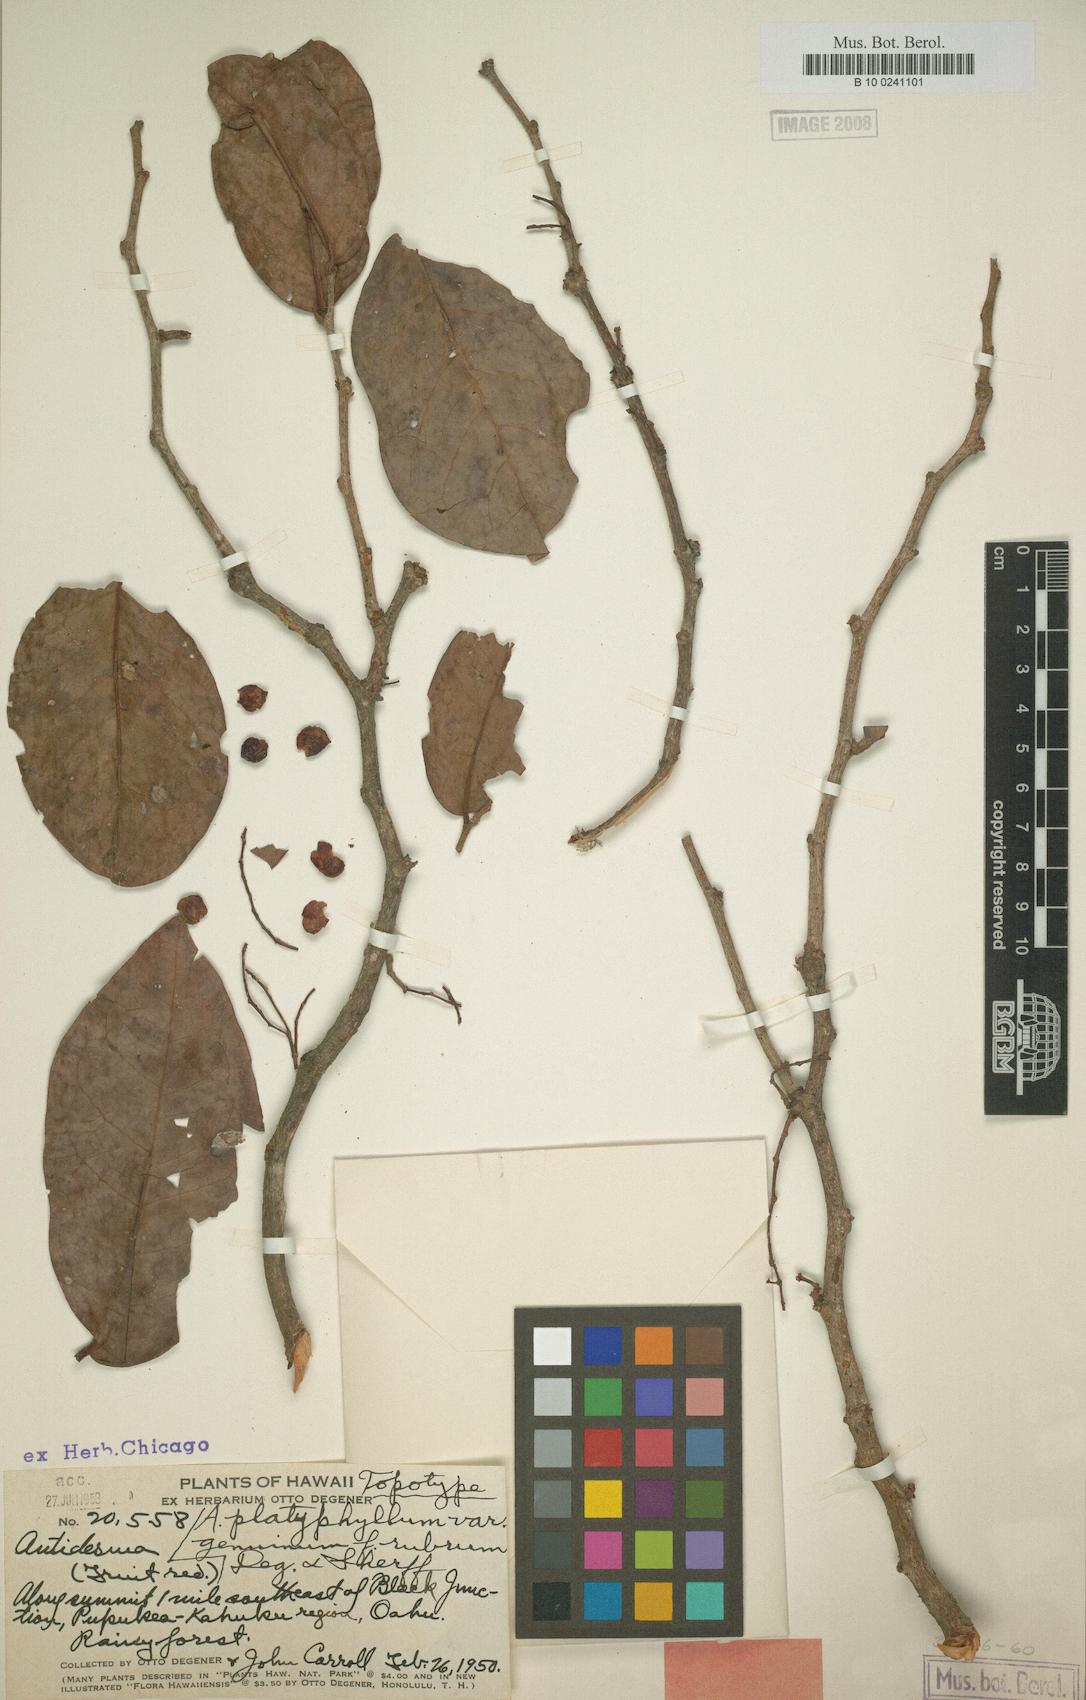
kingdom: Plantae
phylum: Tracheophyta
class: Magnoliopsida
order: Malpighiales
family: Phyllanthaceae
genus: Antidesma
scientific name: Antidesma platyphyllum
